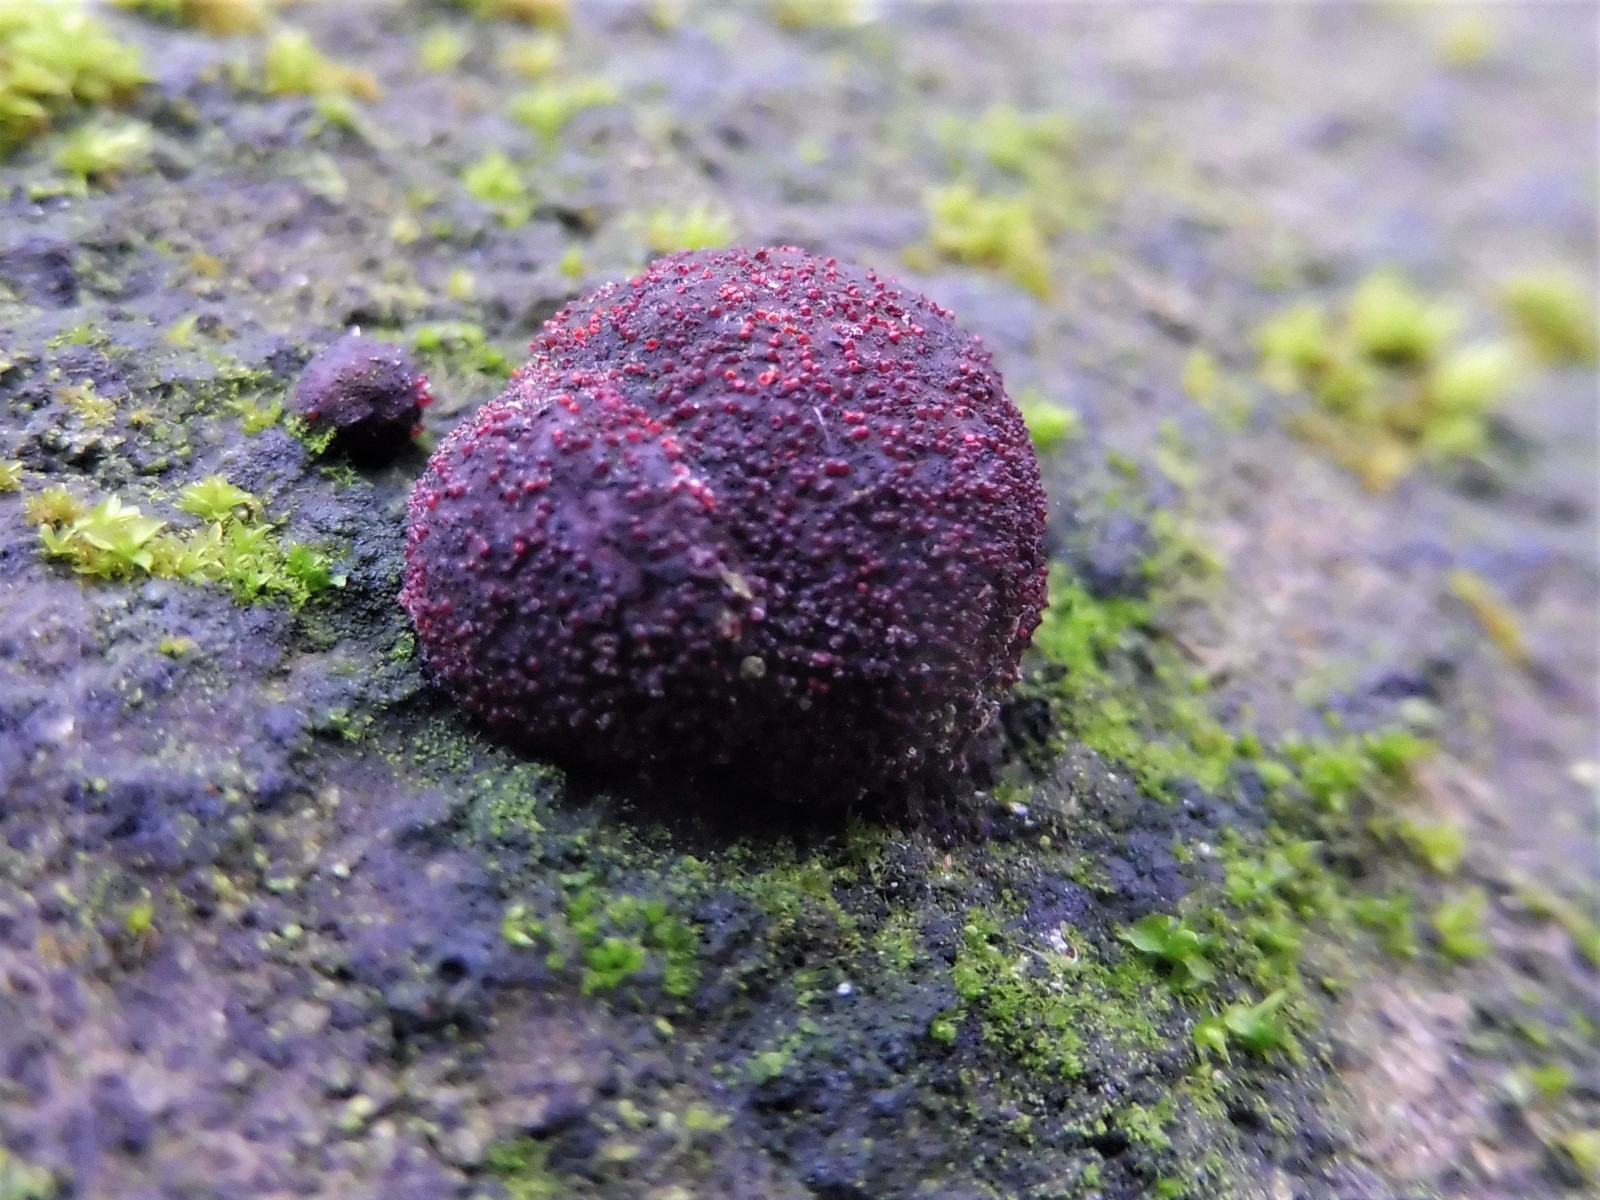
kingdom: Fungi
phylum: Ascomycota
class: Sordariomycetes
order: Hypocreales
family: Nectriaceae
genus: Cosmospora
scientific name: Cosmospora arxii
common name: kuljordbær-cinnobersvamp
